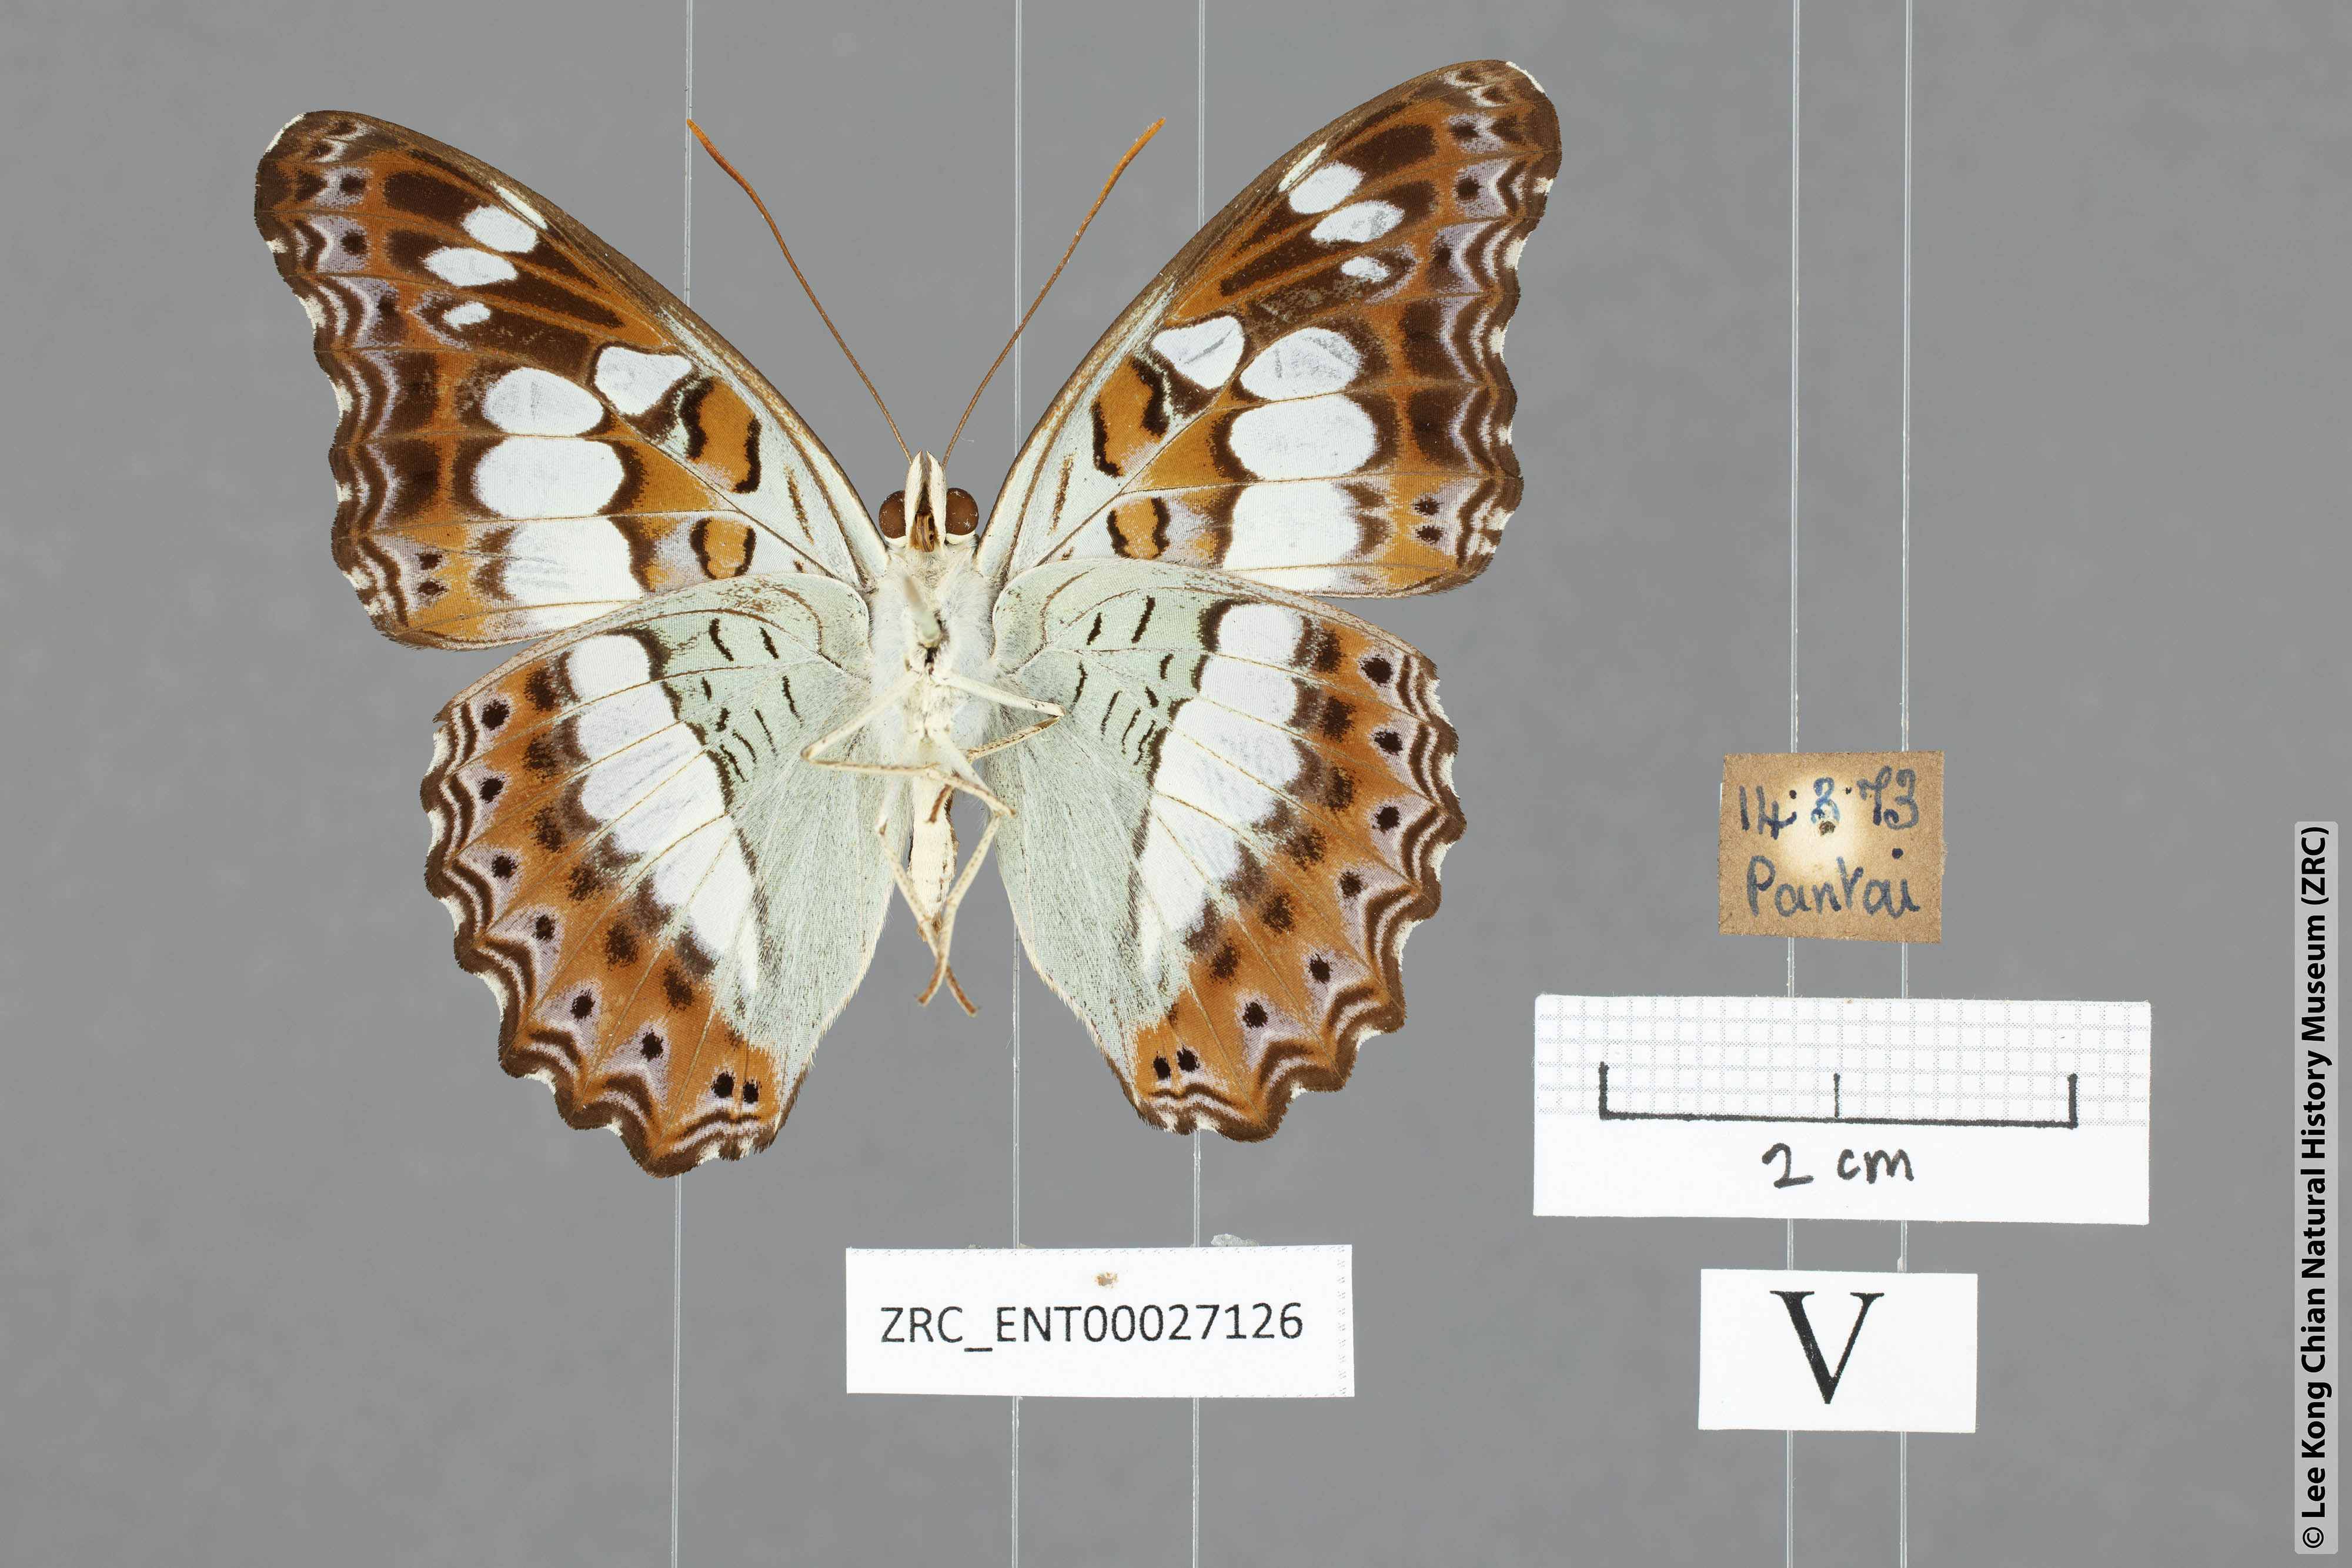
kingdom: Animalia
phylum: Arthropoda
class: Insecta
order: Lepidoptera
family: Nymphalidae
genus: Limenitis
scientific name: Limenitis Moduza procris
